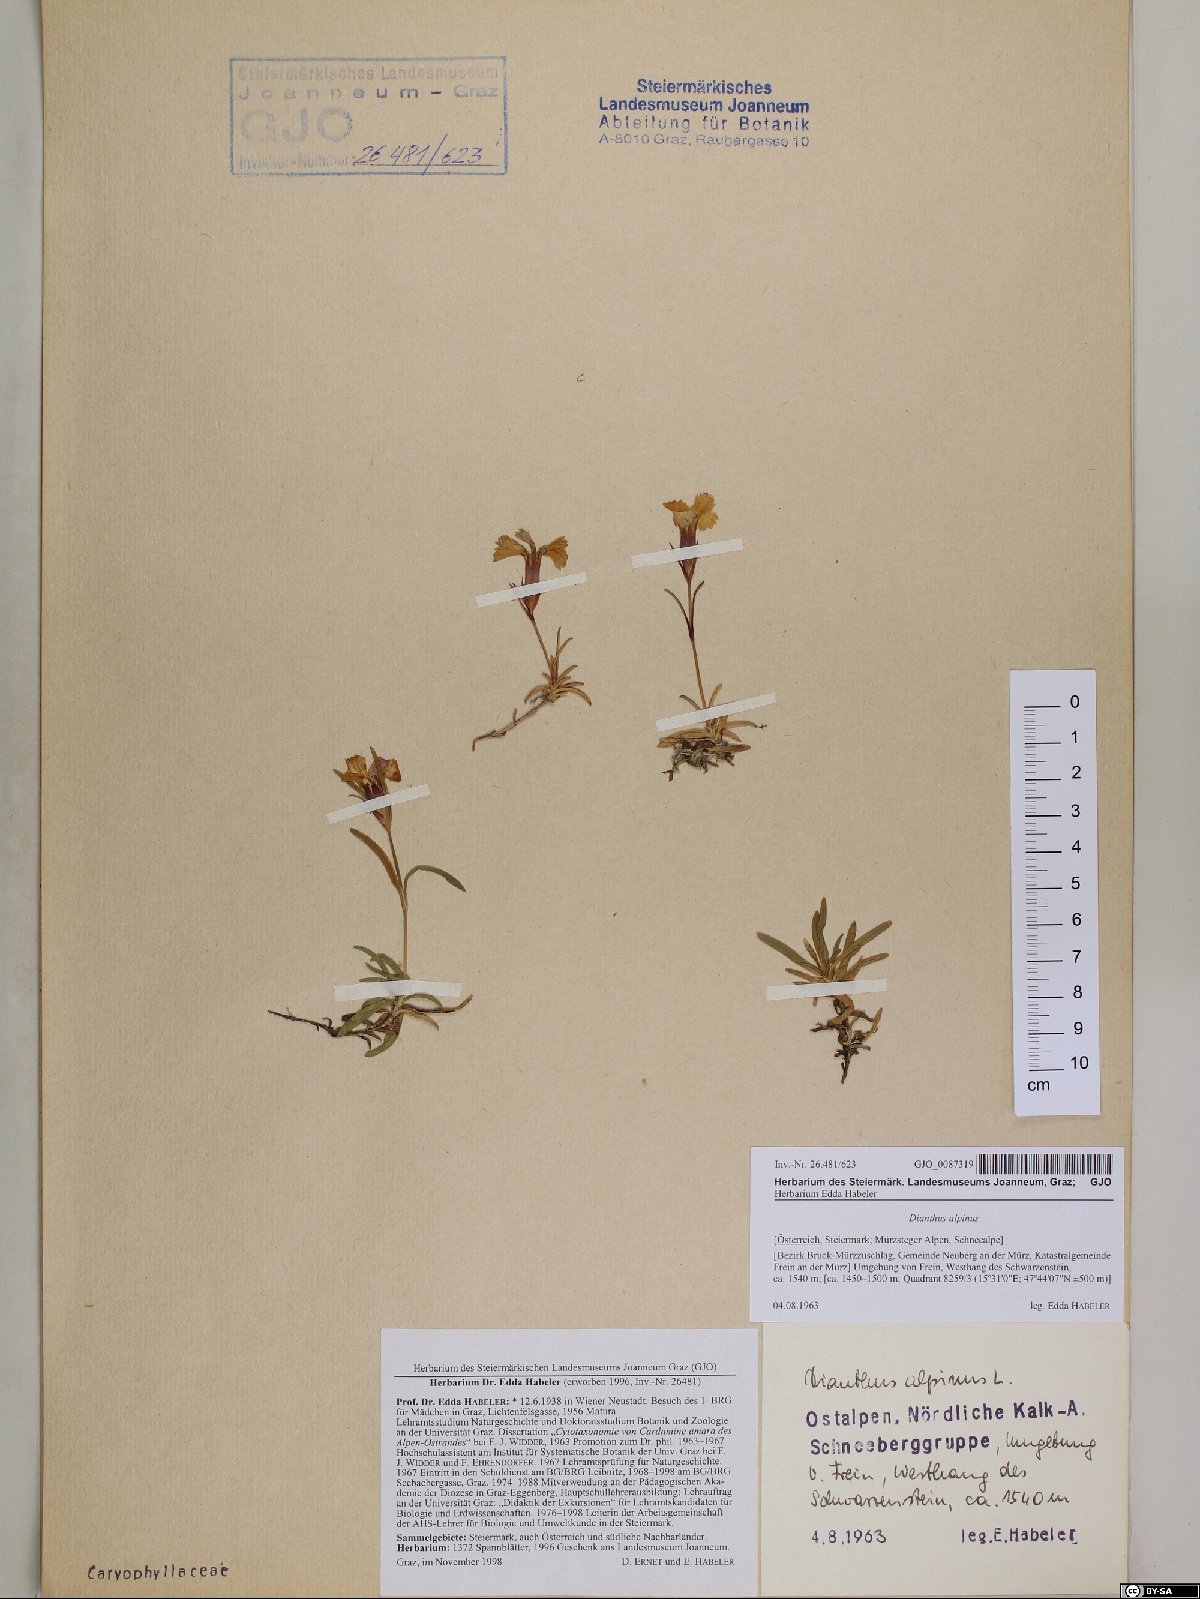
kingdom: Plantae
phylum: Tracheophyta
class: Magnoliopsida
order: Caryophyllales
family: Caryophyllaceae
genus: Dianthus
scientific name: Dianthus alpinus
